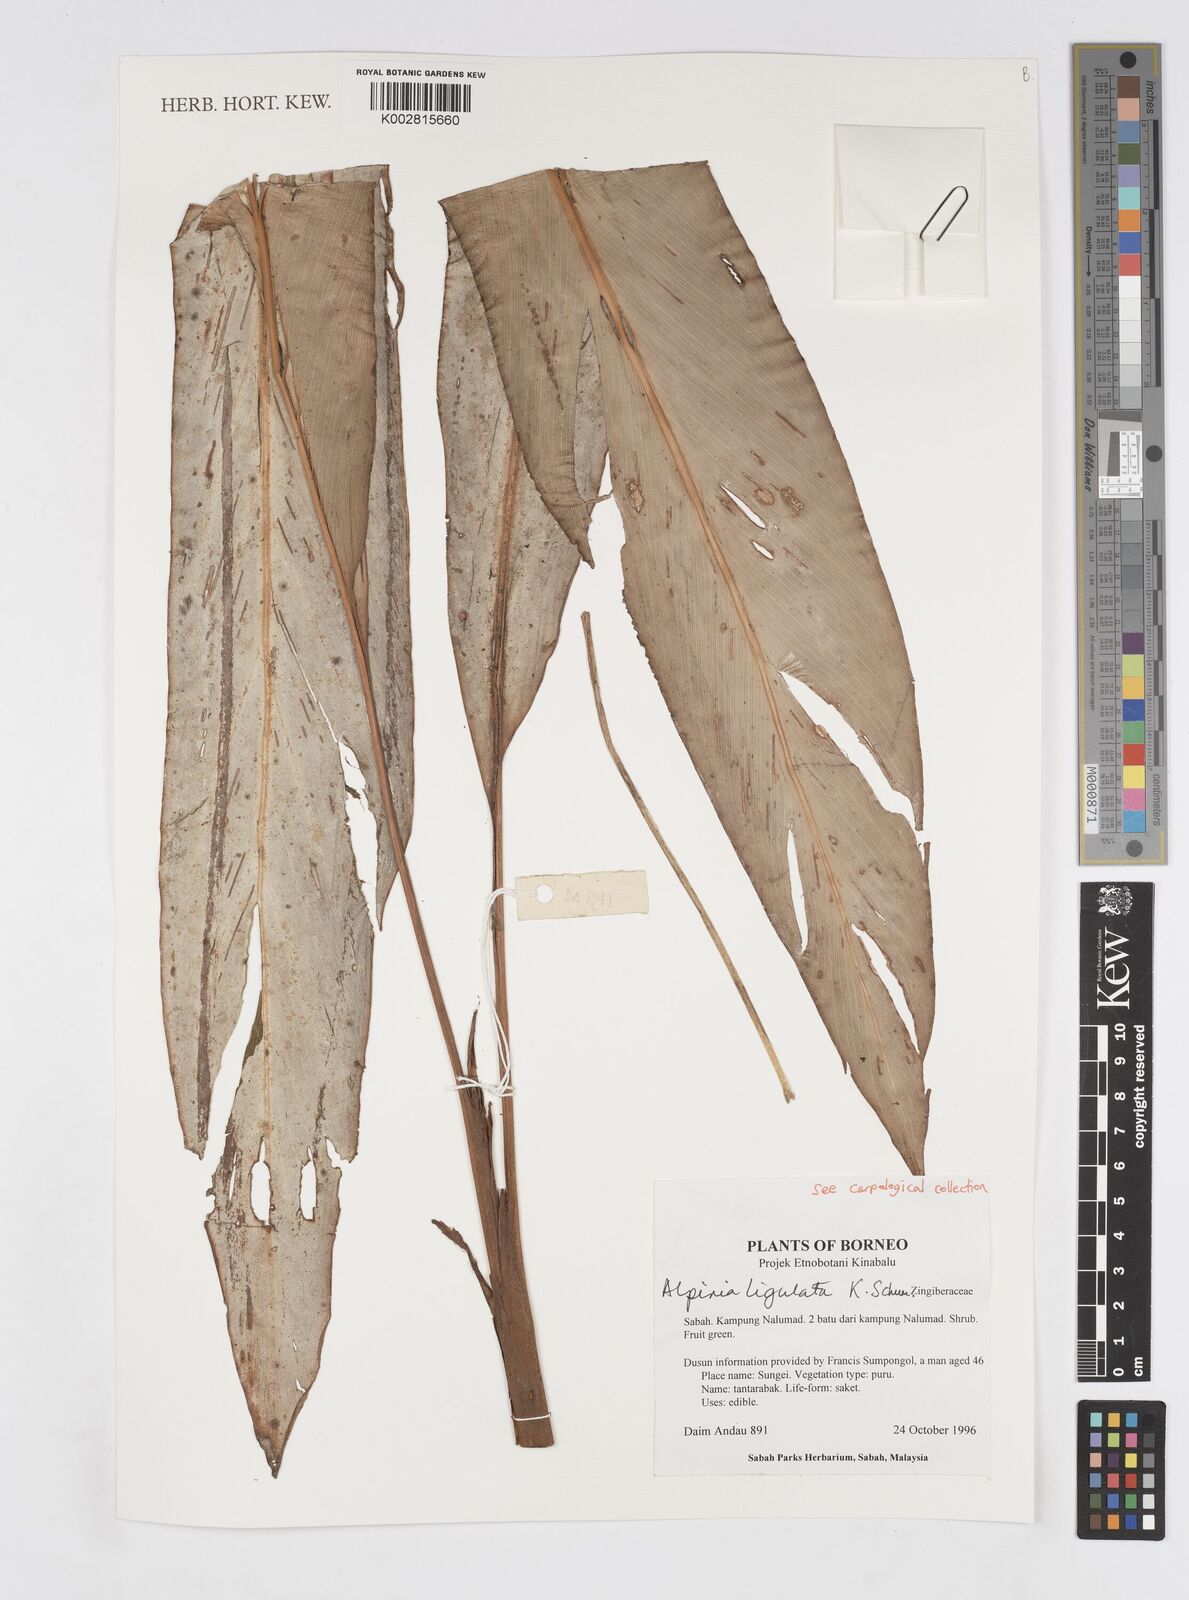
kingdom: Plantae
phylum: Tracheophyta
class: Liliopsida
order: Zingiberales
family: Zingiberaceae
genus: Alpinia
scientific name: Alpinia ligulata
